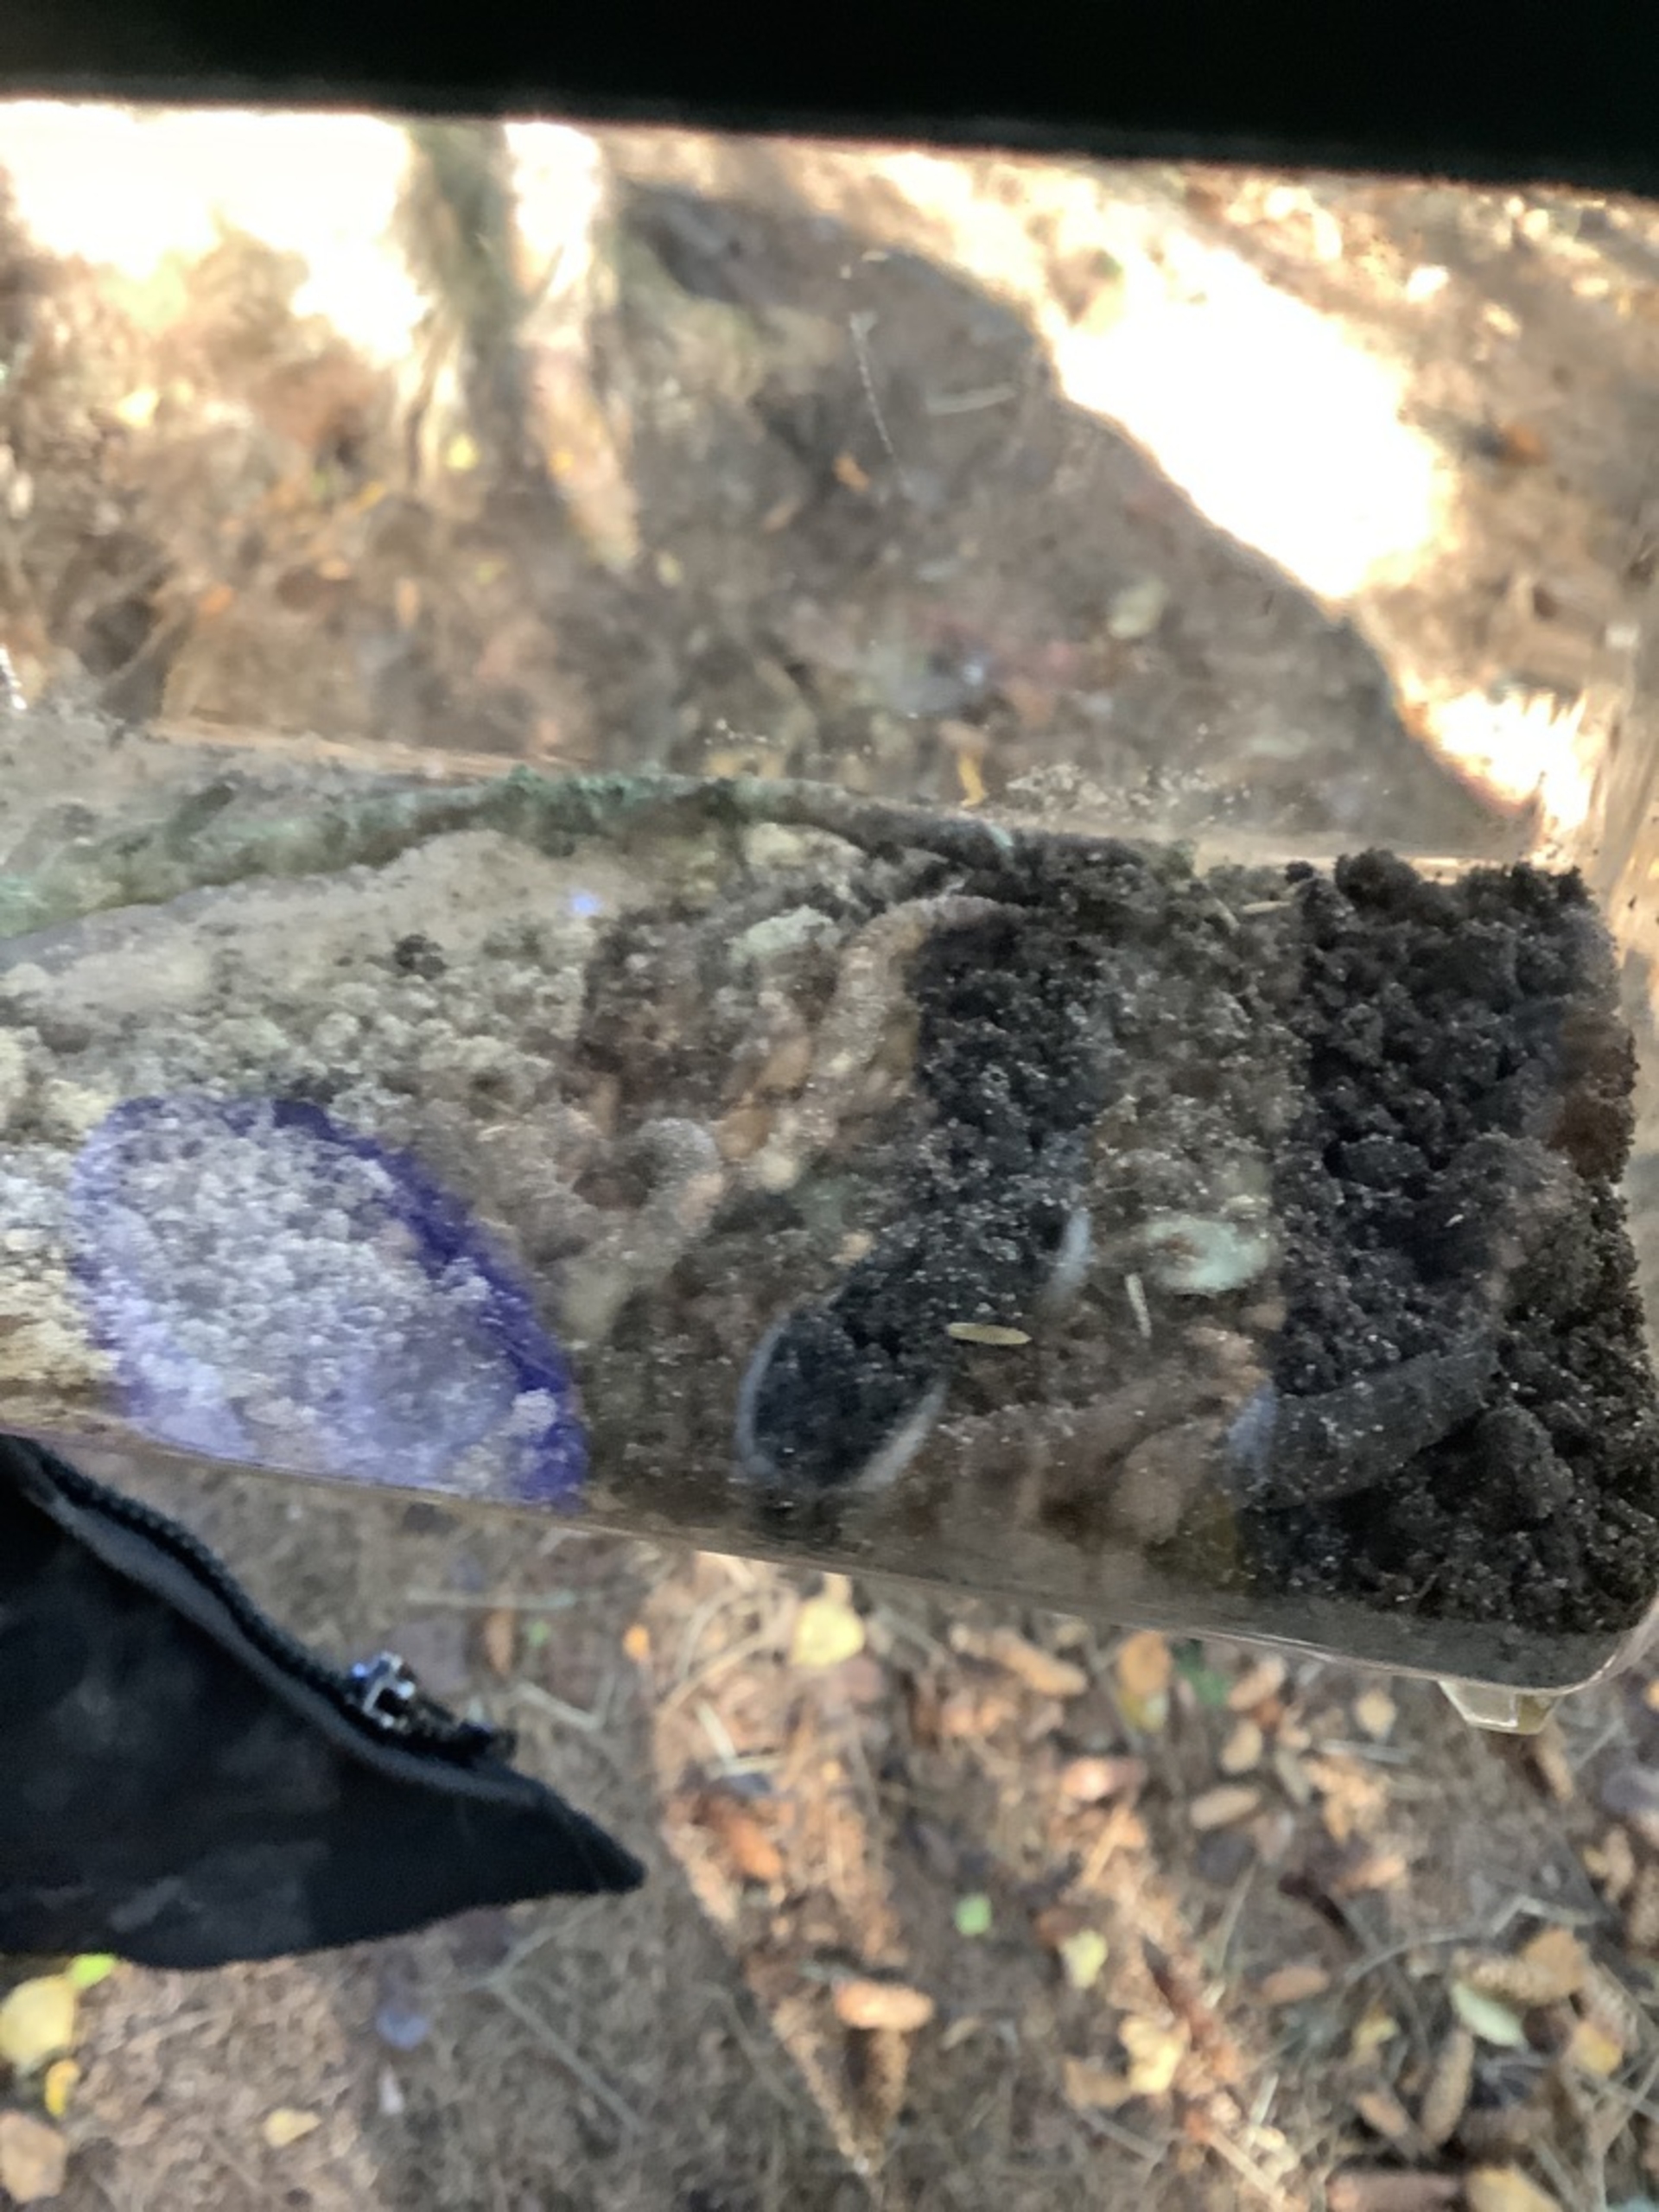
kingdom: Animalia
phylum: Annelida
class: Clitellata
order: Crassiclitellata
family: Lumbricidae
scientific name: Lumbricidae
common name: Regnorme
